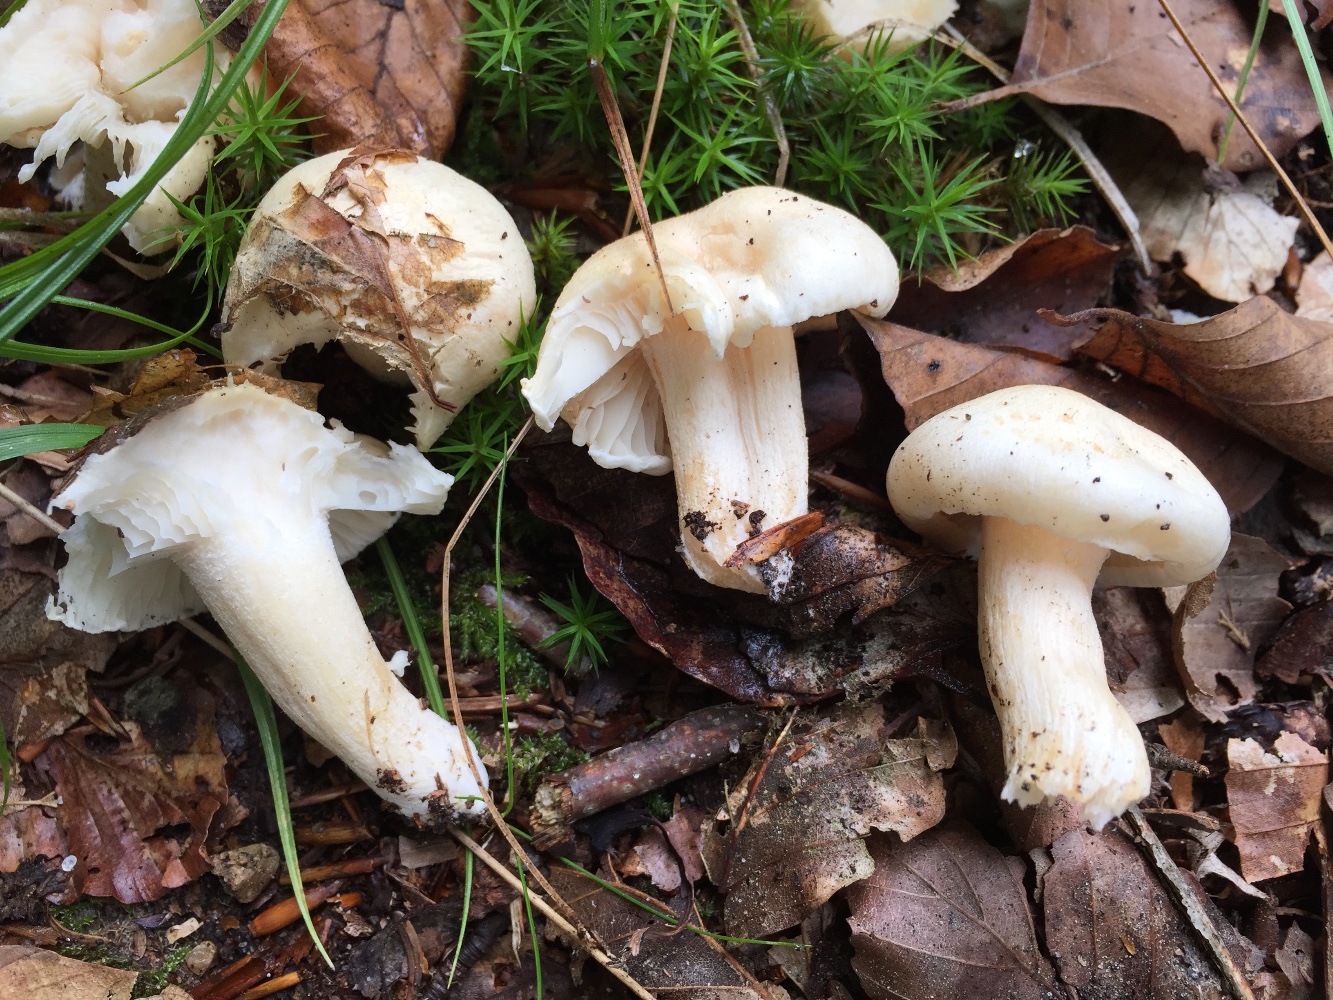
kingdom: Fungi
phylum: Basidiomycota
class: Agaricomycetes
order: Agaricales
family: Hygrophoraceae
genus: Hygrophorus
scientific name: Hygrophorus penarius
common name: spiselig sneglehat
